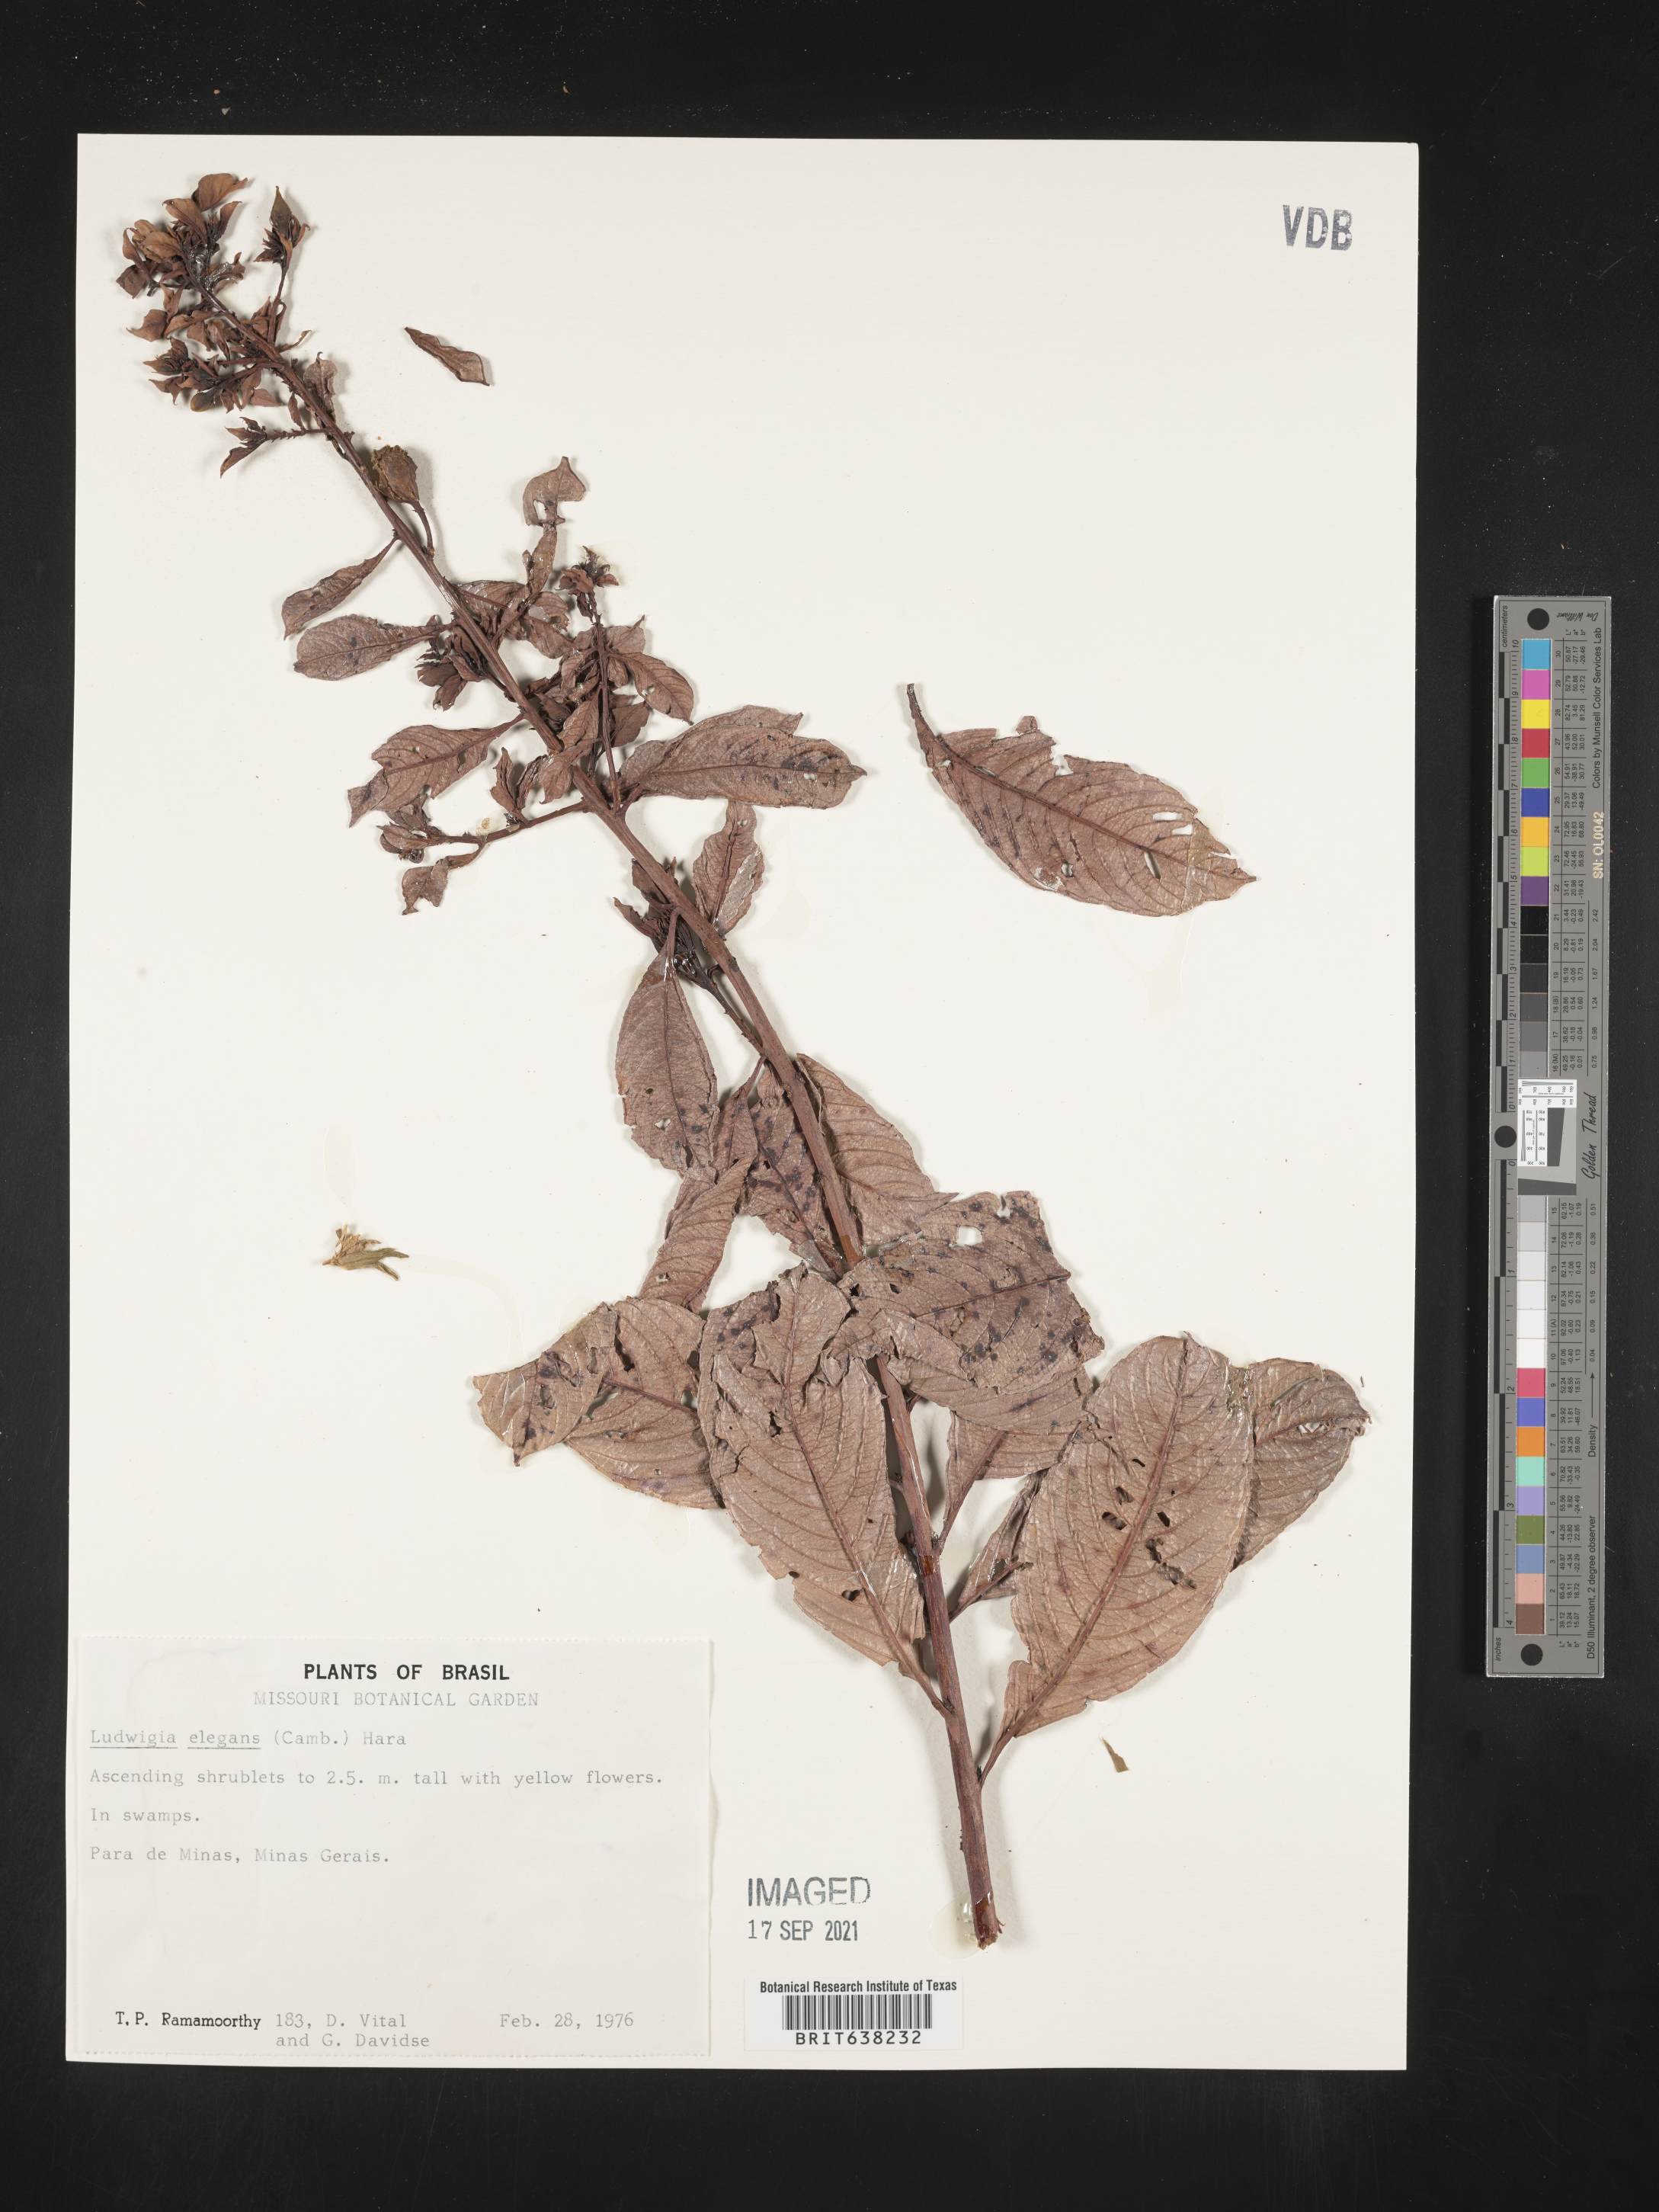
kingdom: Plantae
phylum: Tracheophyta
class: Magnoliopsida
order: Myrtales
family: Onagraceae
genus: Ludwigia
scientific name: Ludwigia
